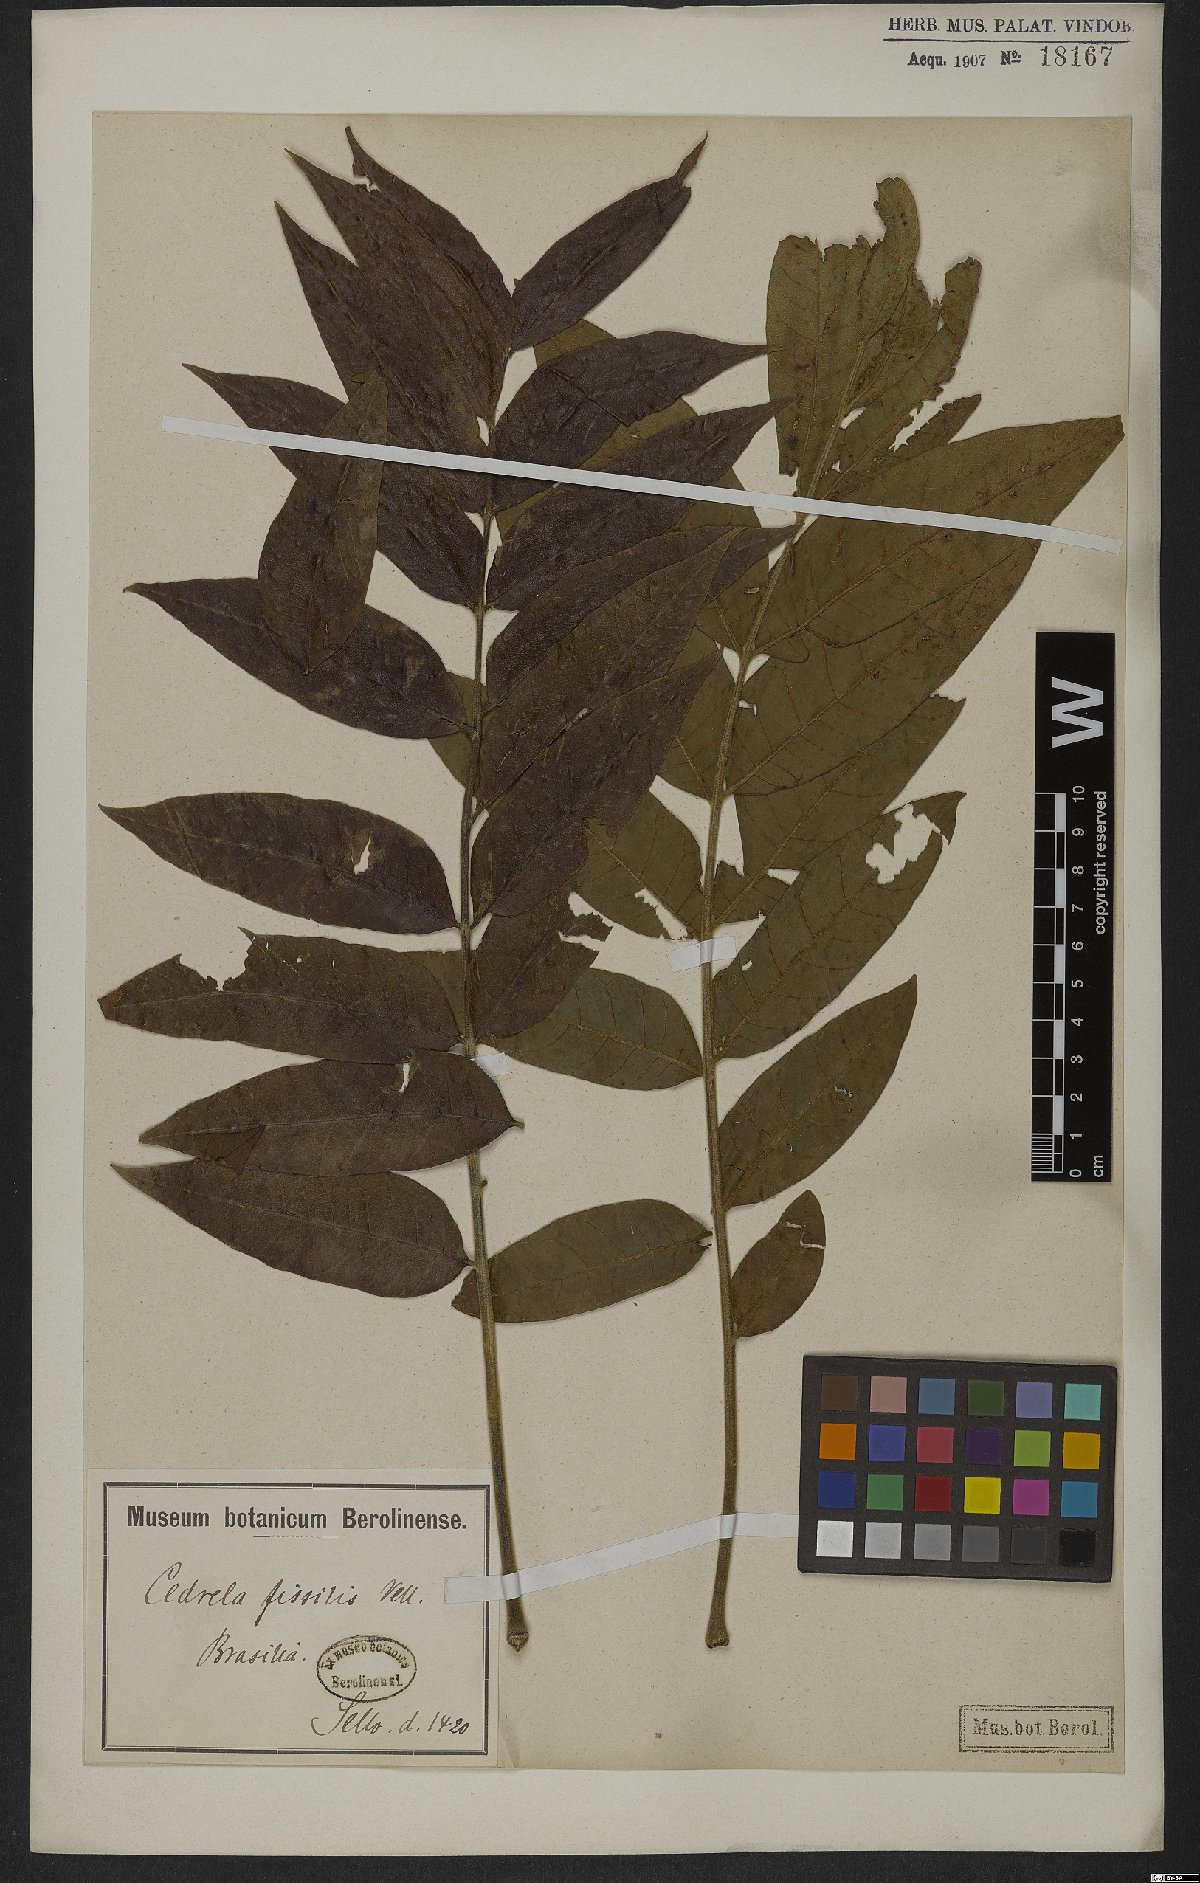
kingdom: Plantae
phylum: Tracheophyta
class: Magnoliopsida
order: Sapindales
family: Meliaceae
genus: Cedrela
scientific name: Cedrela fissilis
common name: Argentine cedar
